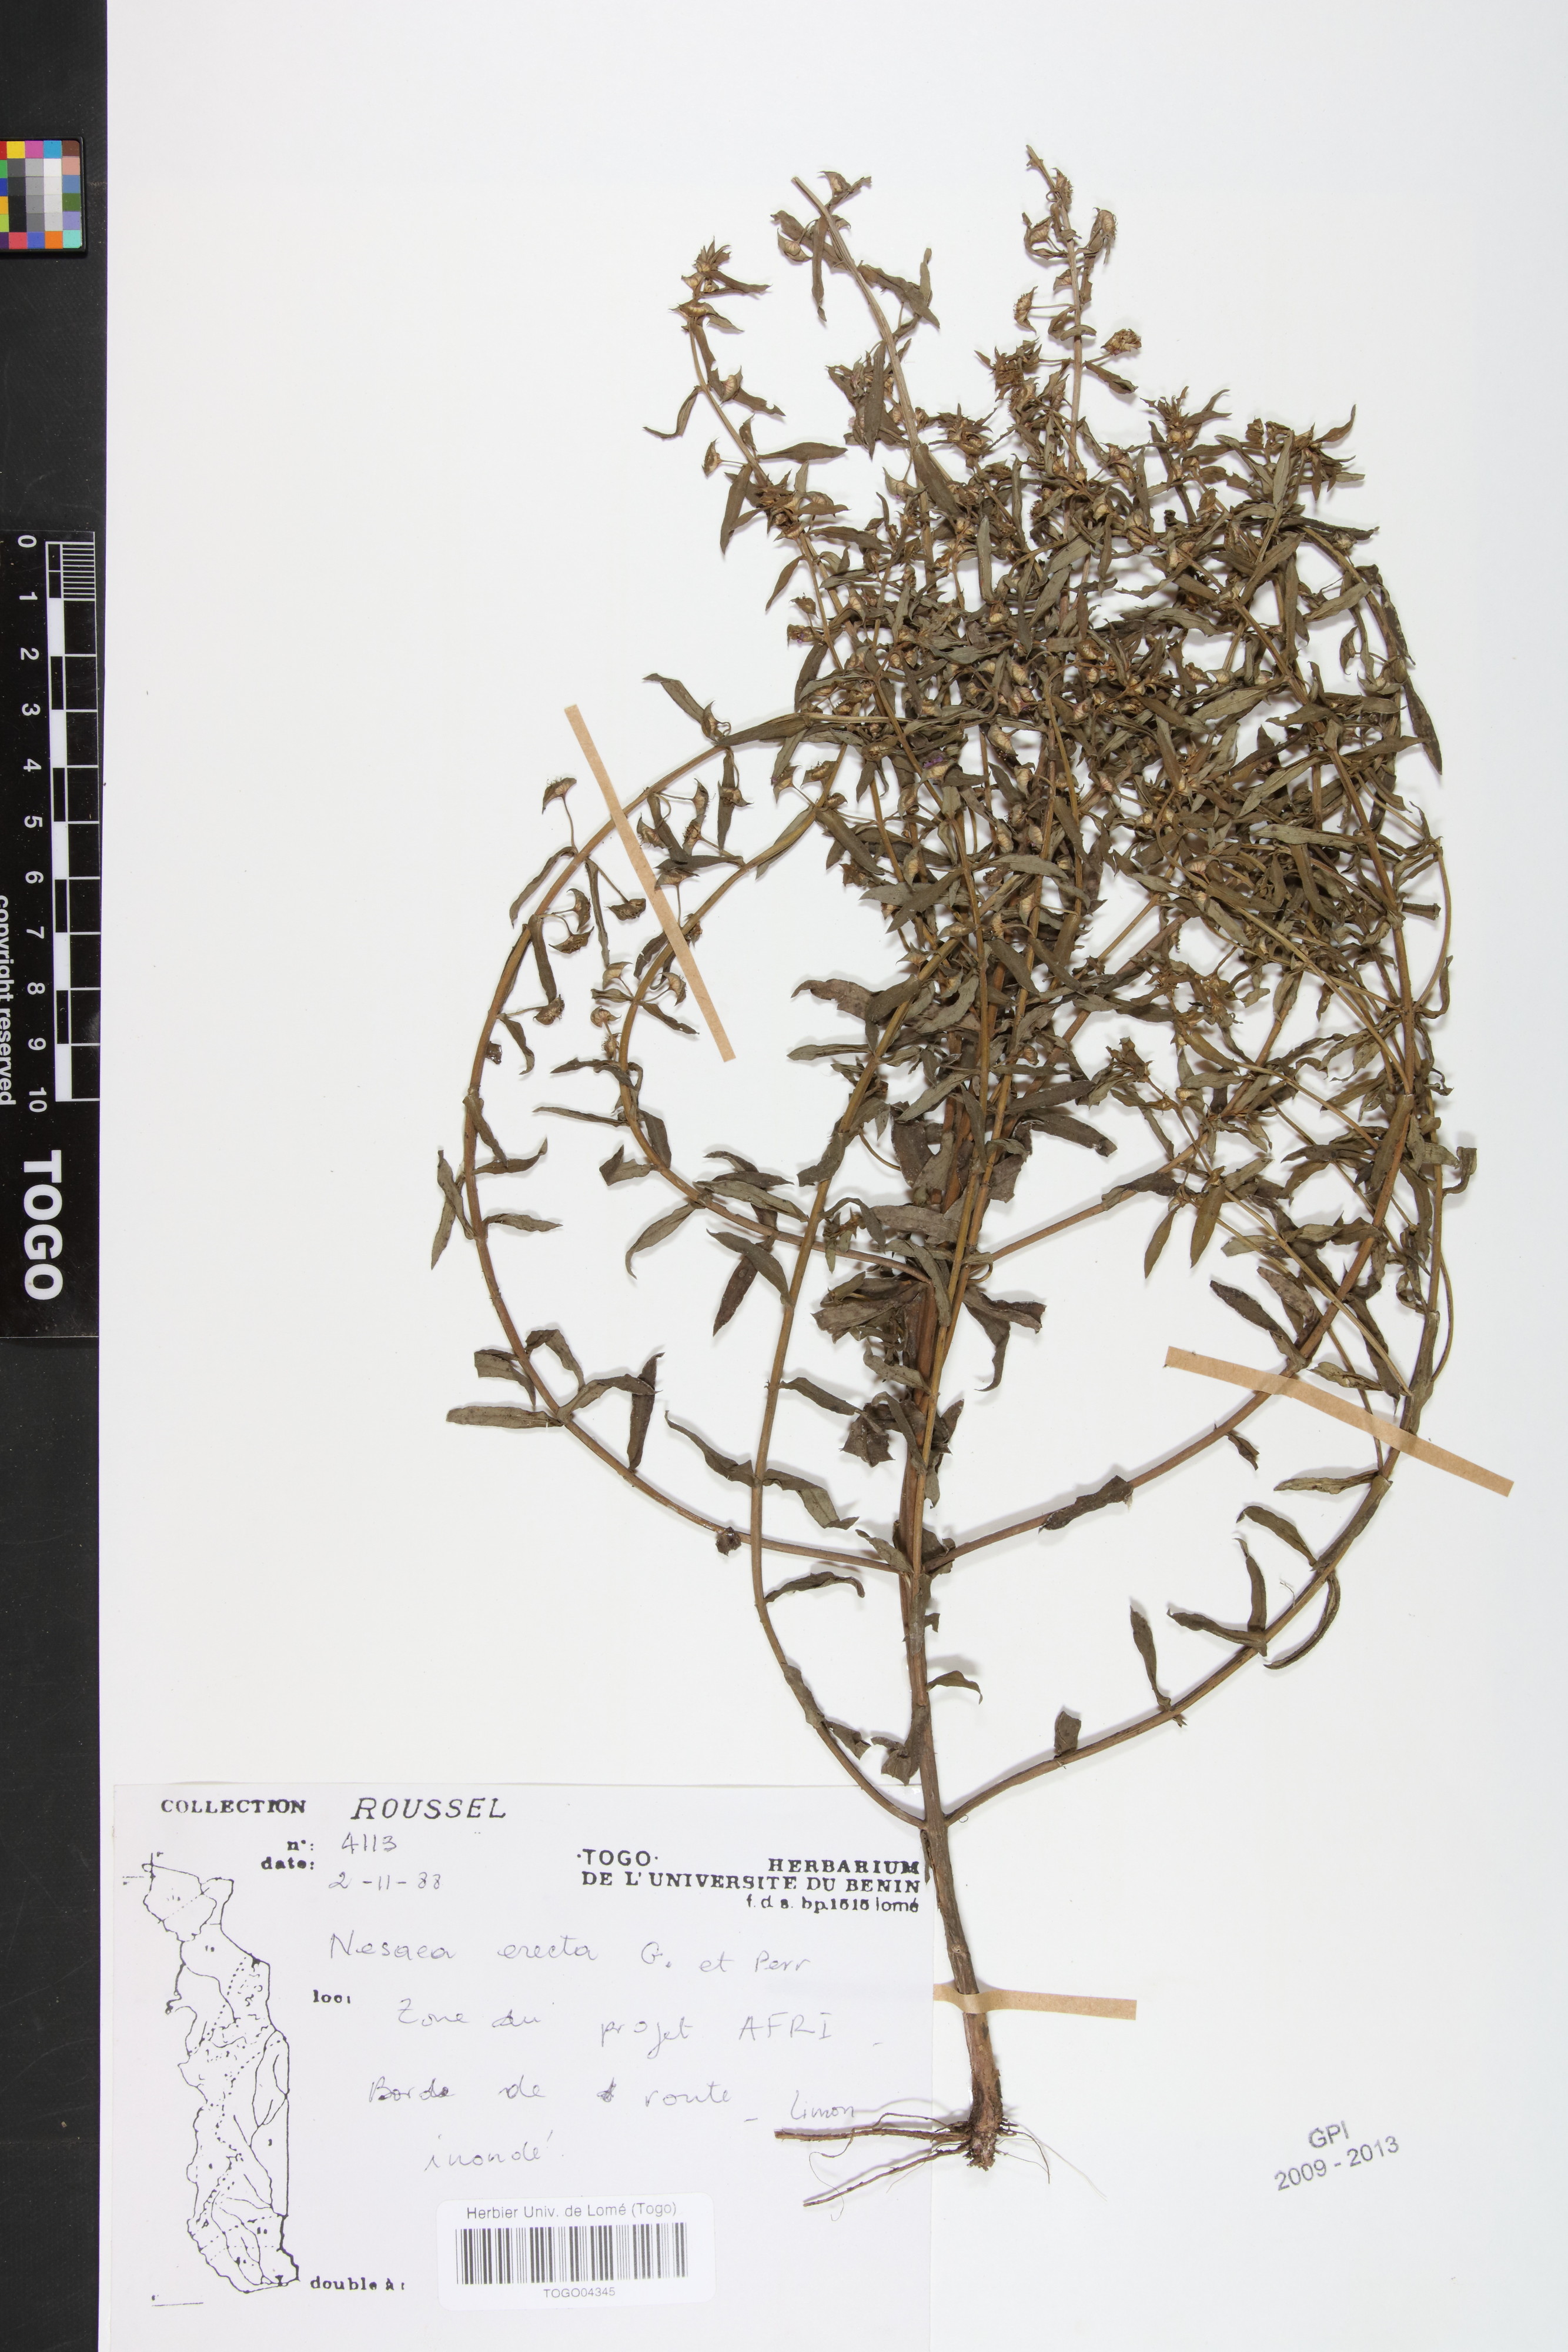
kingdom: Plantae
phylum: Tracheophyta
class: Magnoliopsida
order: Myrtales
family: Lythraceae
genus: Ammannia
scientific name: Ammannia erecta
